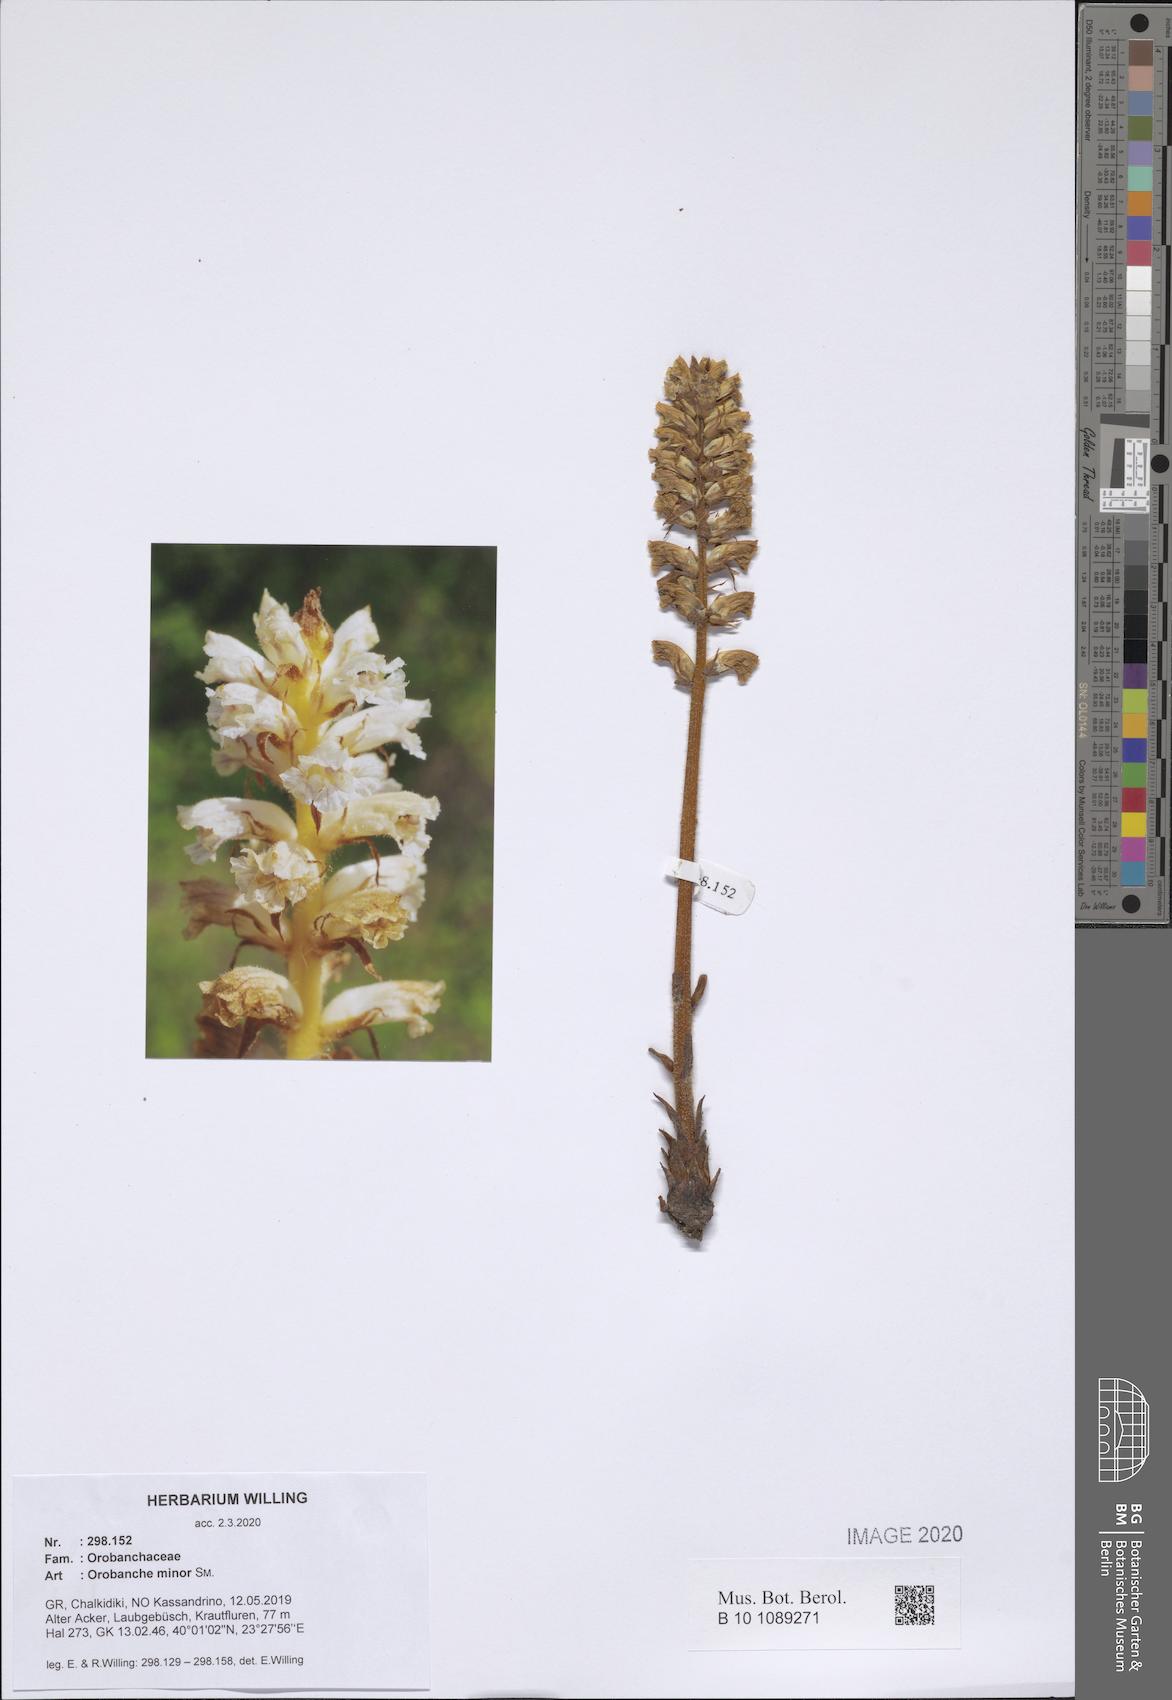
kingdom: Plantae
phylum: Tracheophyta
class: Magnoliopsida
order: Lamiales
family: Orobanchaceae
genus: Orobanche
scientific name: Orobanche grisebachii
